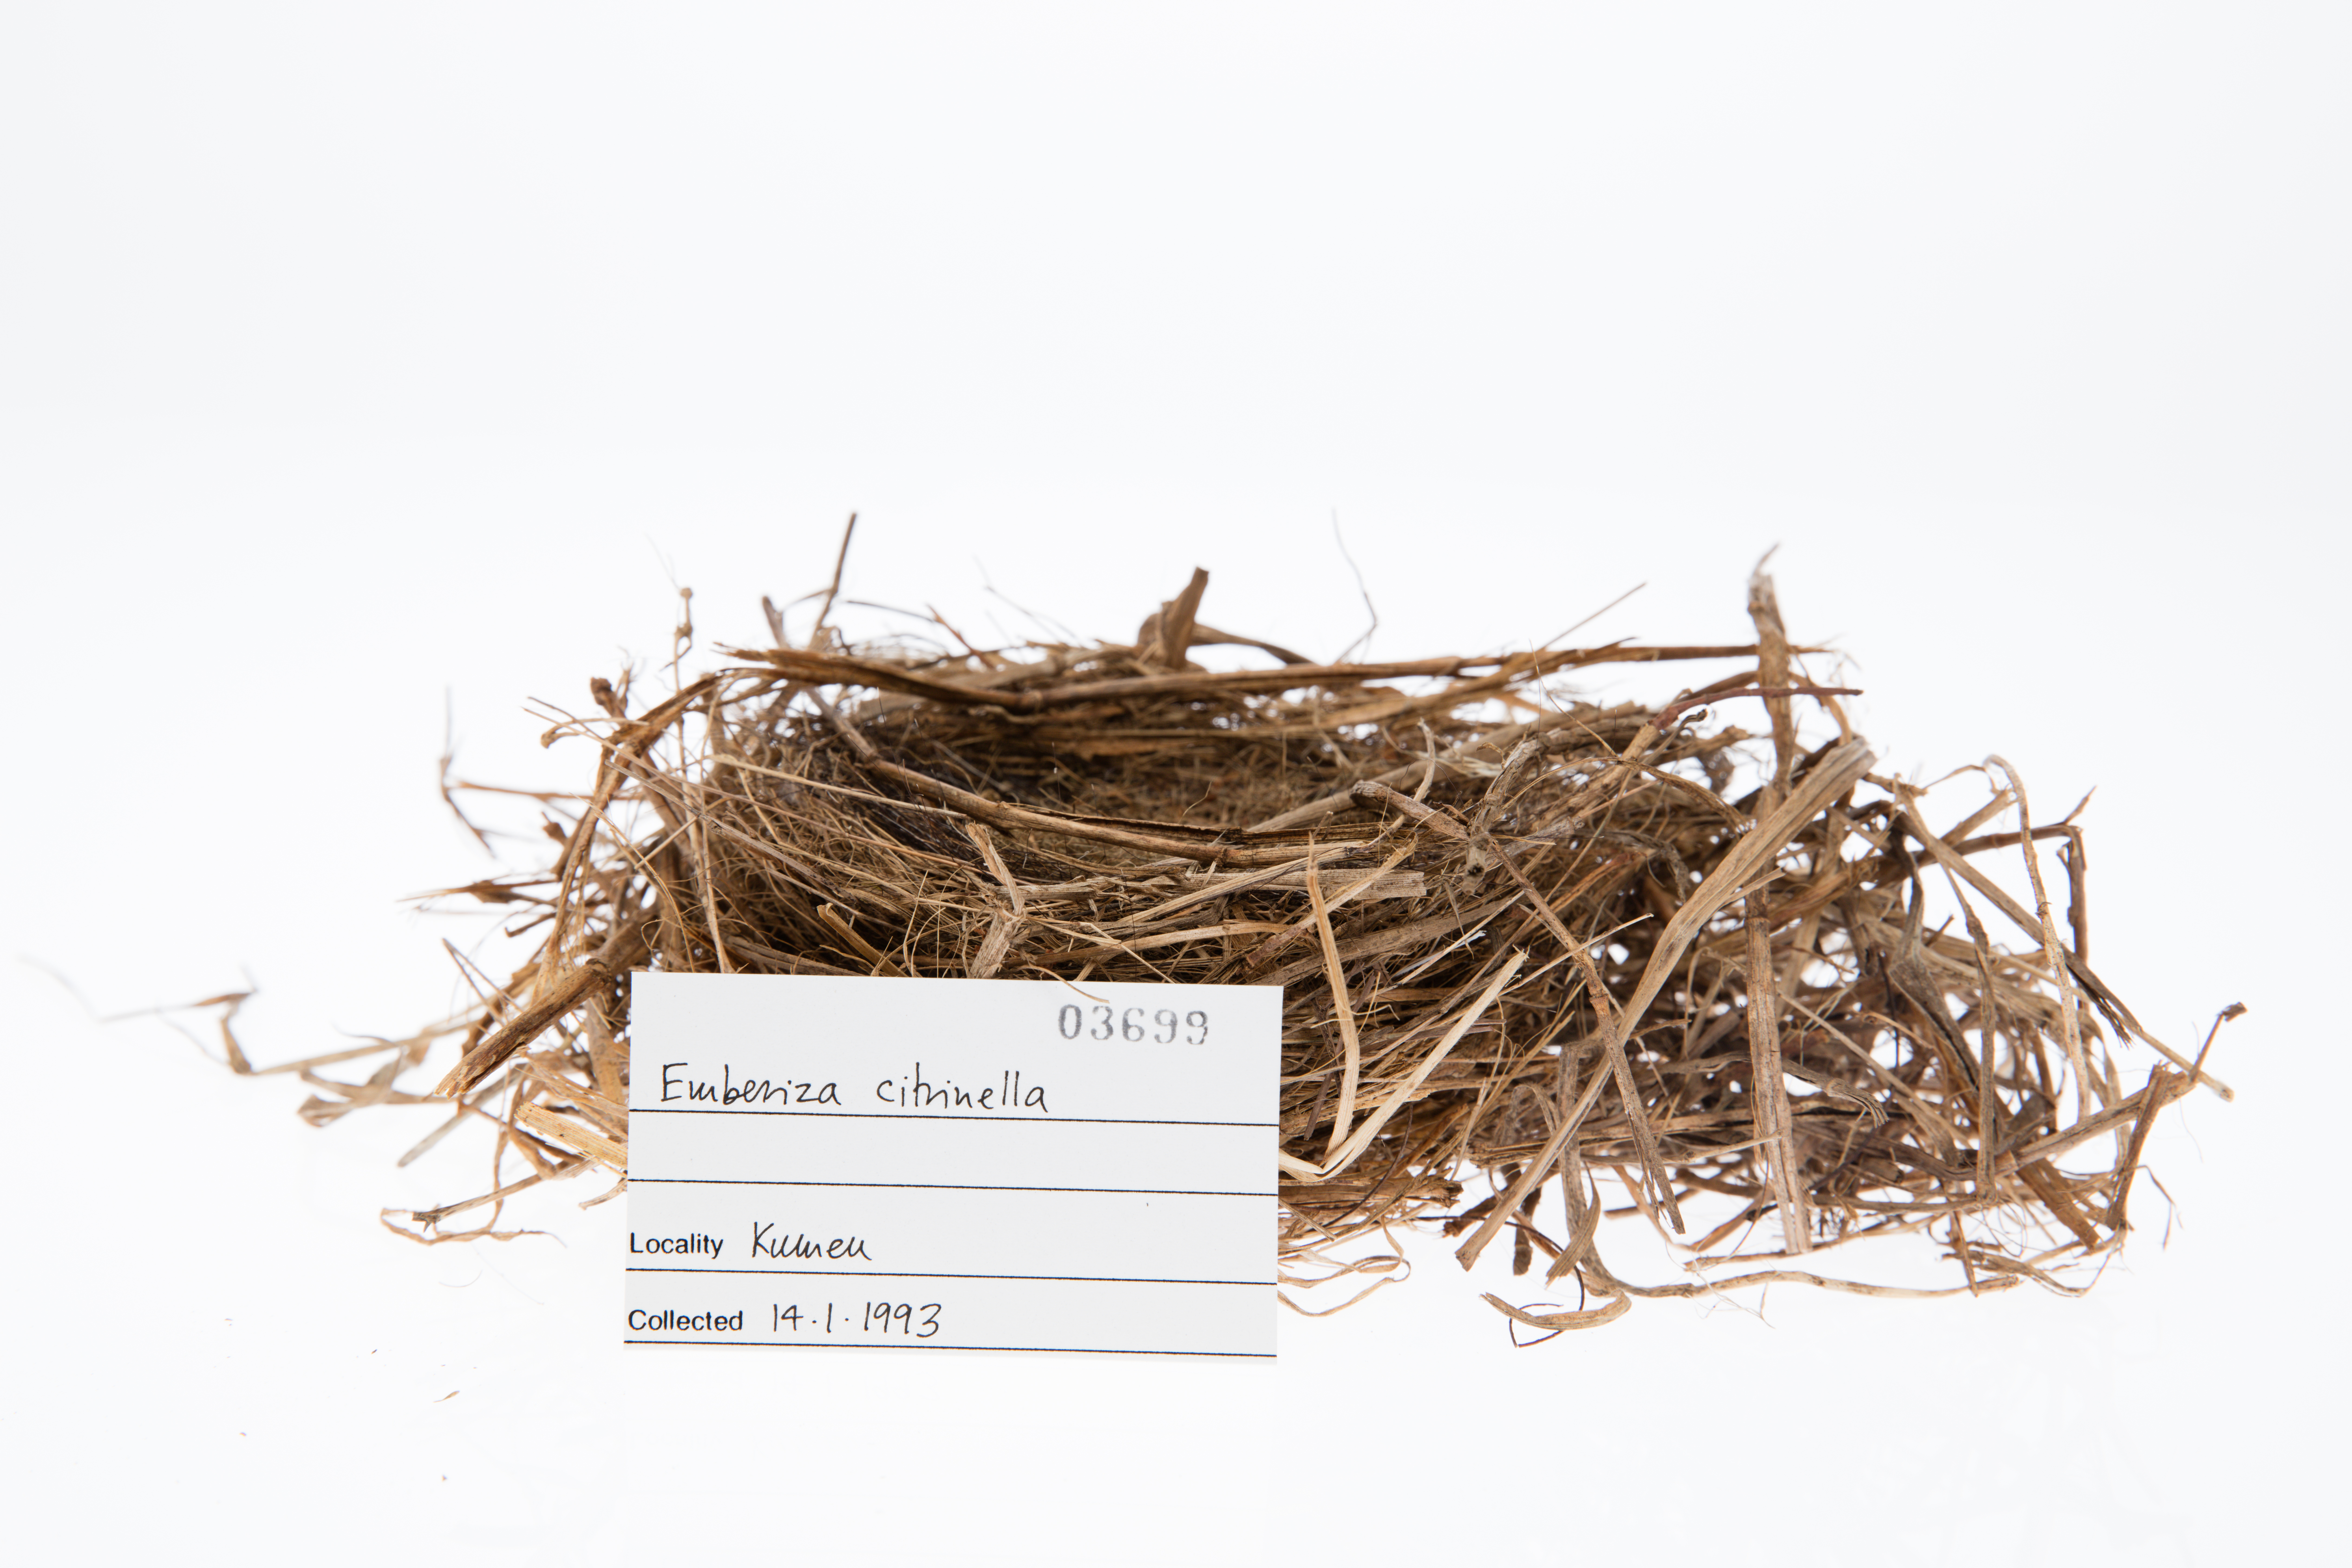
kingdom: Animalia
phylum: Chordata
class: Aves
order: Passeriformes
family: Emberizidae
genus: Emberiza
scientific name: Emberiza citrinella
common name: Yellowhammer
